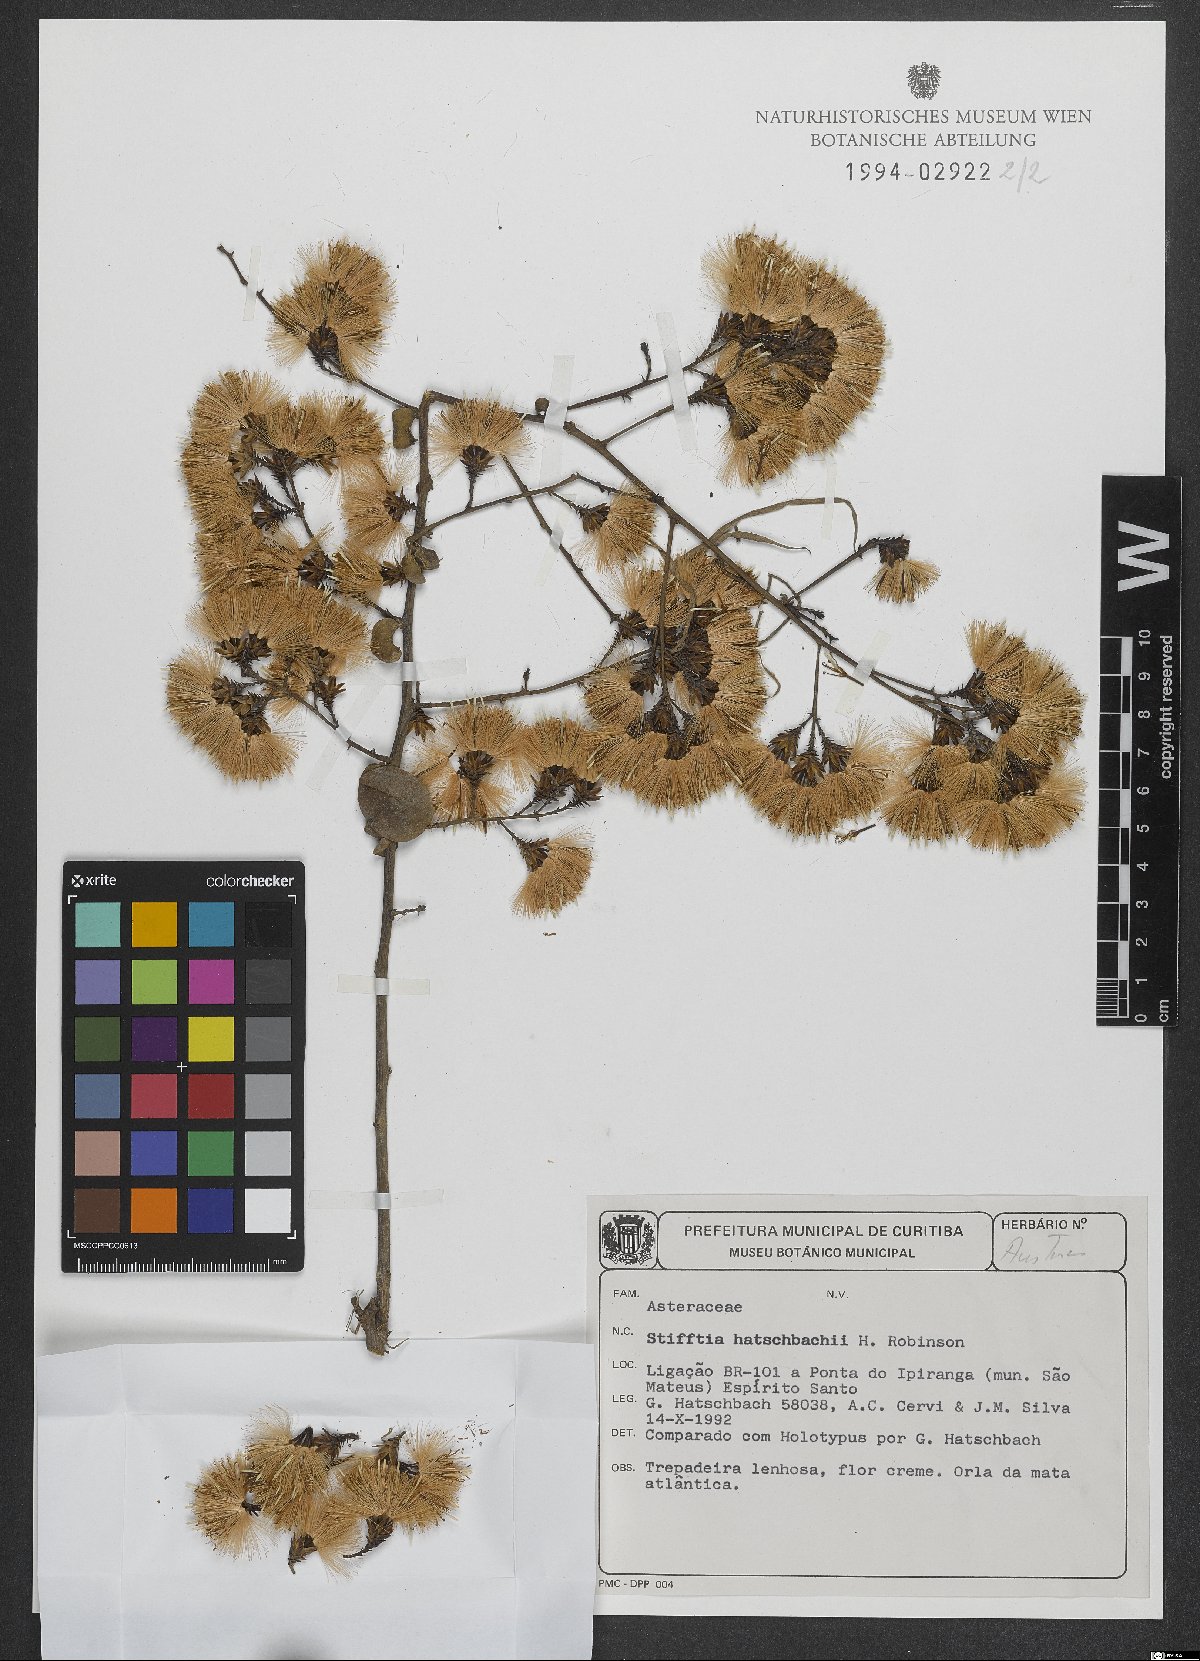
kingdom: Plantae
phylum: Tracheophyta
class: Magnoliopsida
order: Asterales
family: Asteraceae
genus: Stifftia
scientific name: Stifftia hatschbachii
